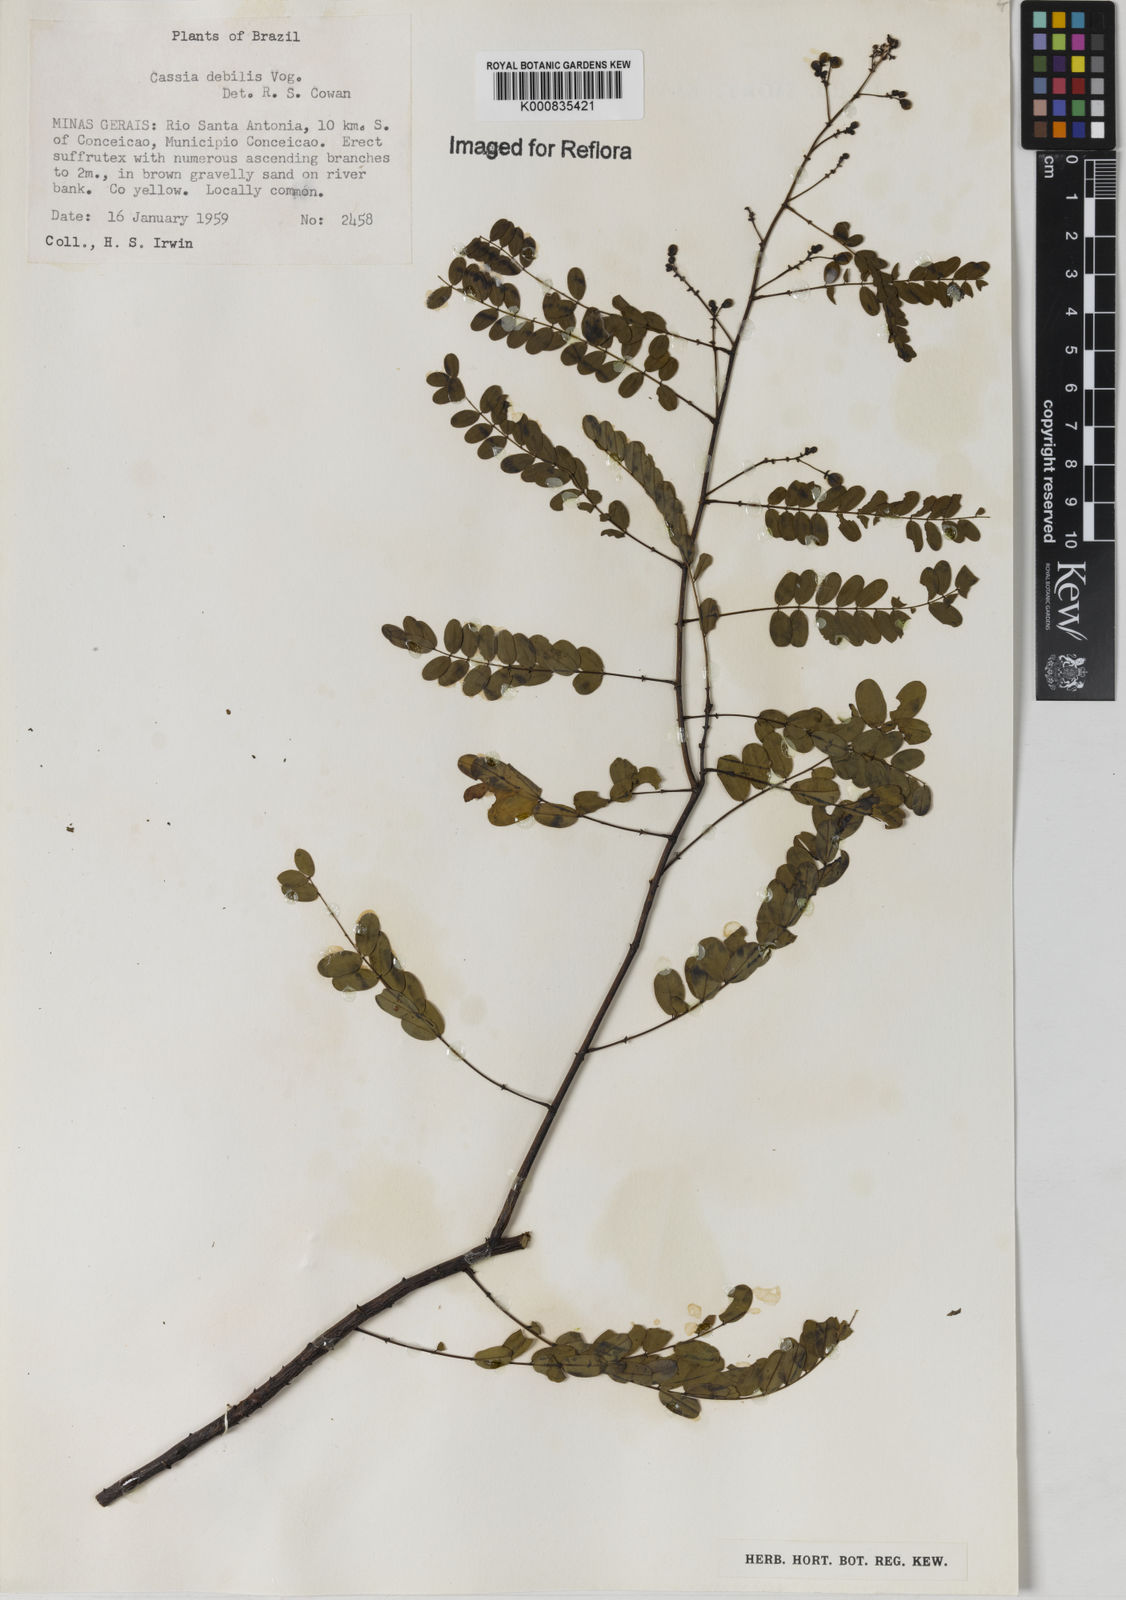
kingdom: Plantae
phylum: Tracheophyta
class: Magnoliopsida
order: Fabales
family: Fabaceae
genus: Chamaecrista
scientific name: Chamaecrista debilis
